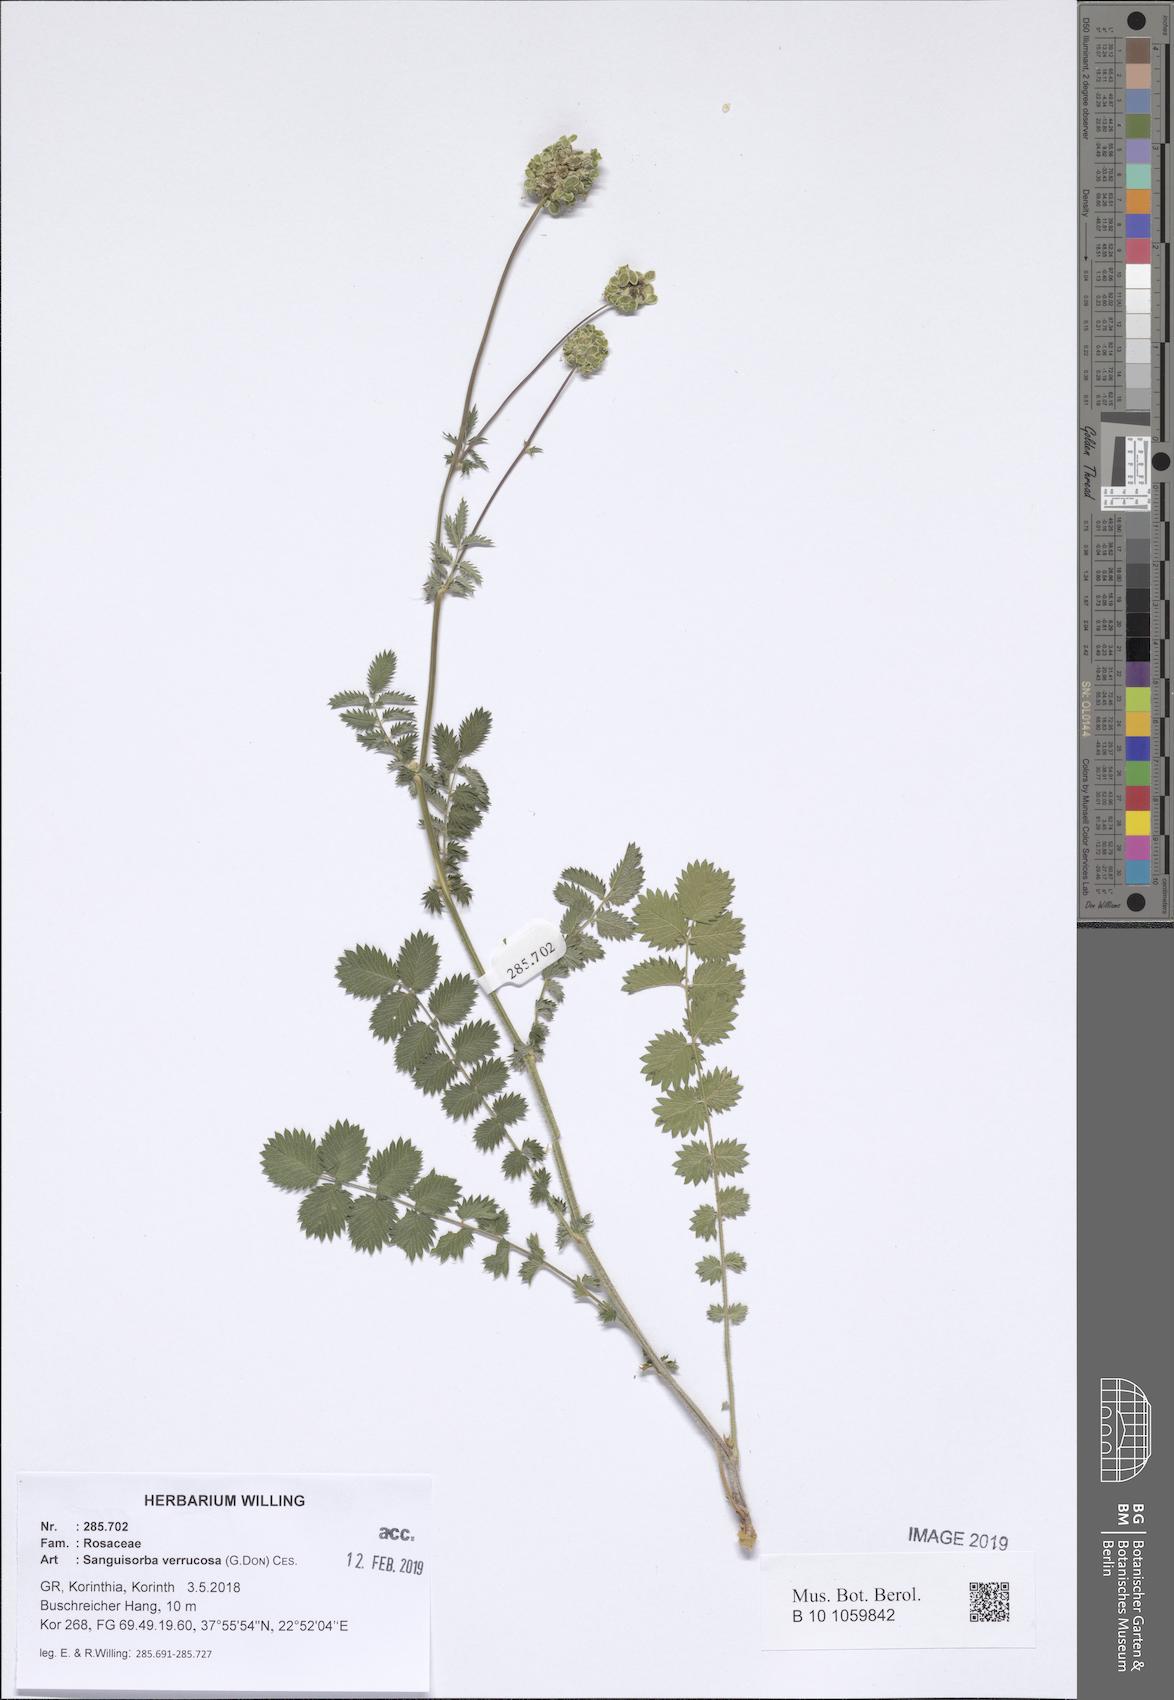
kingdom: Plantae
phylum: Tracheophyta
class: Magnoliopsida
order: Rosales
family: Rosaceae
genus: Poterium
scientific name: Poterium verrucosum
